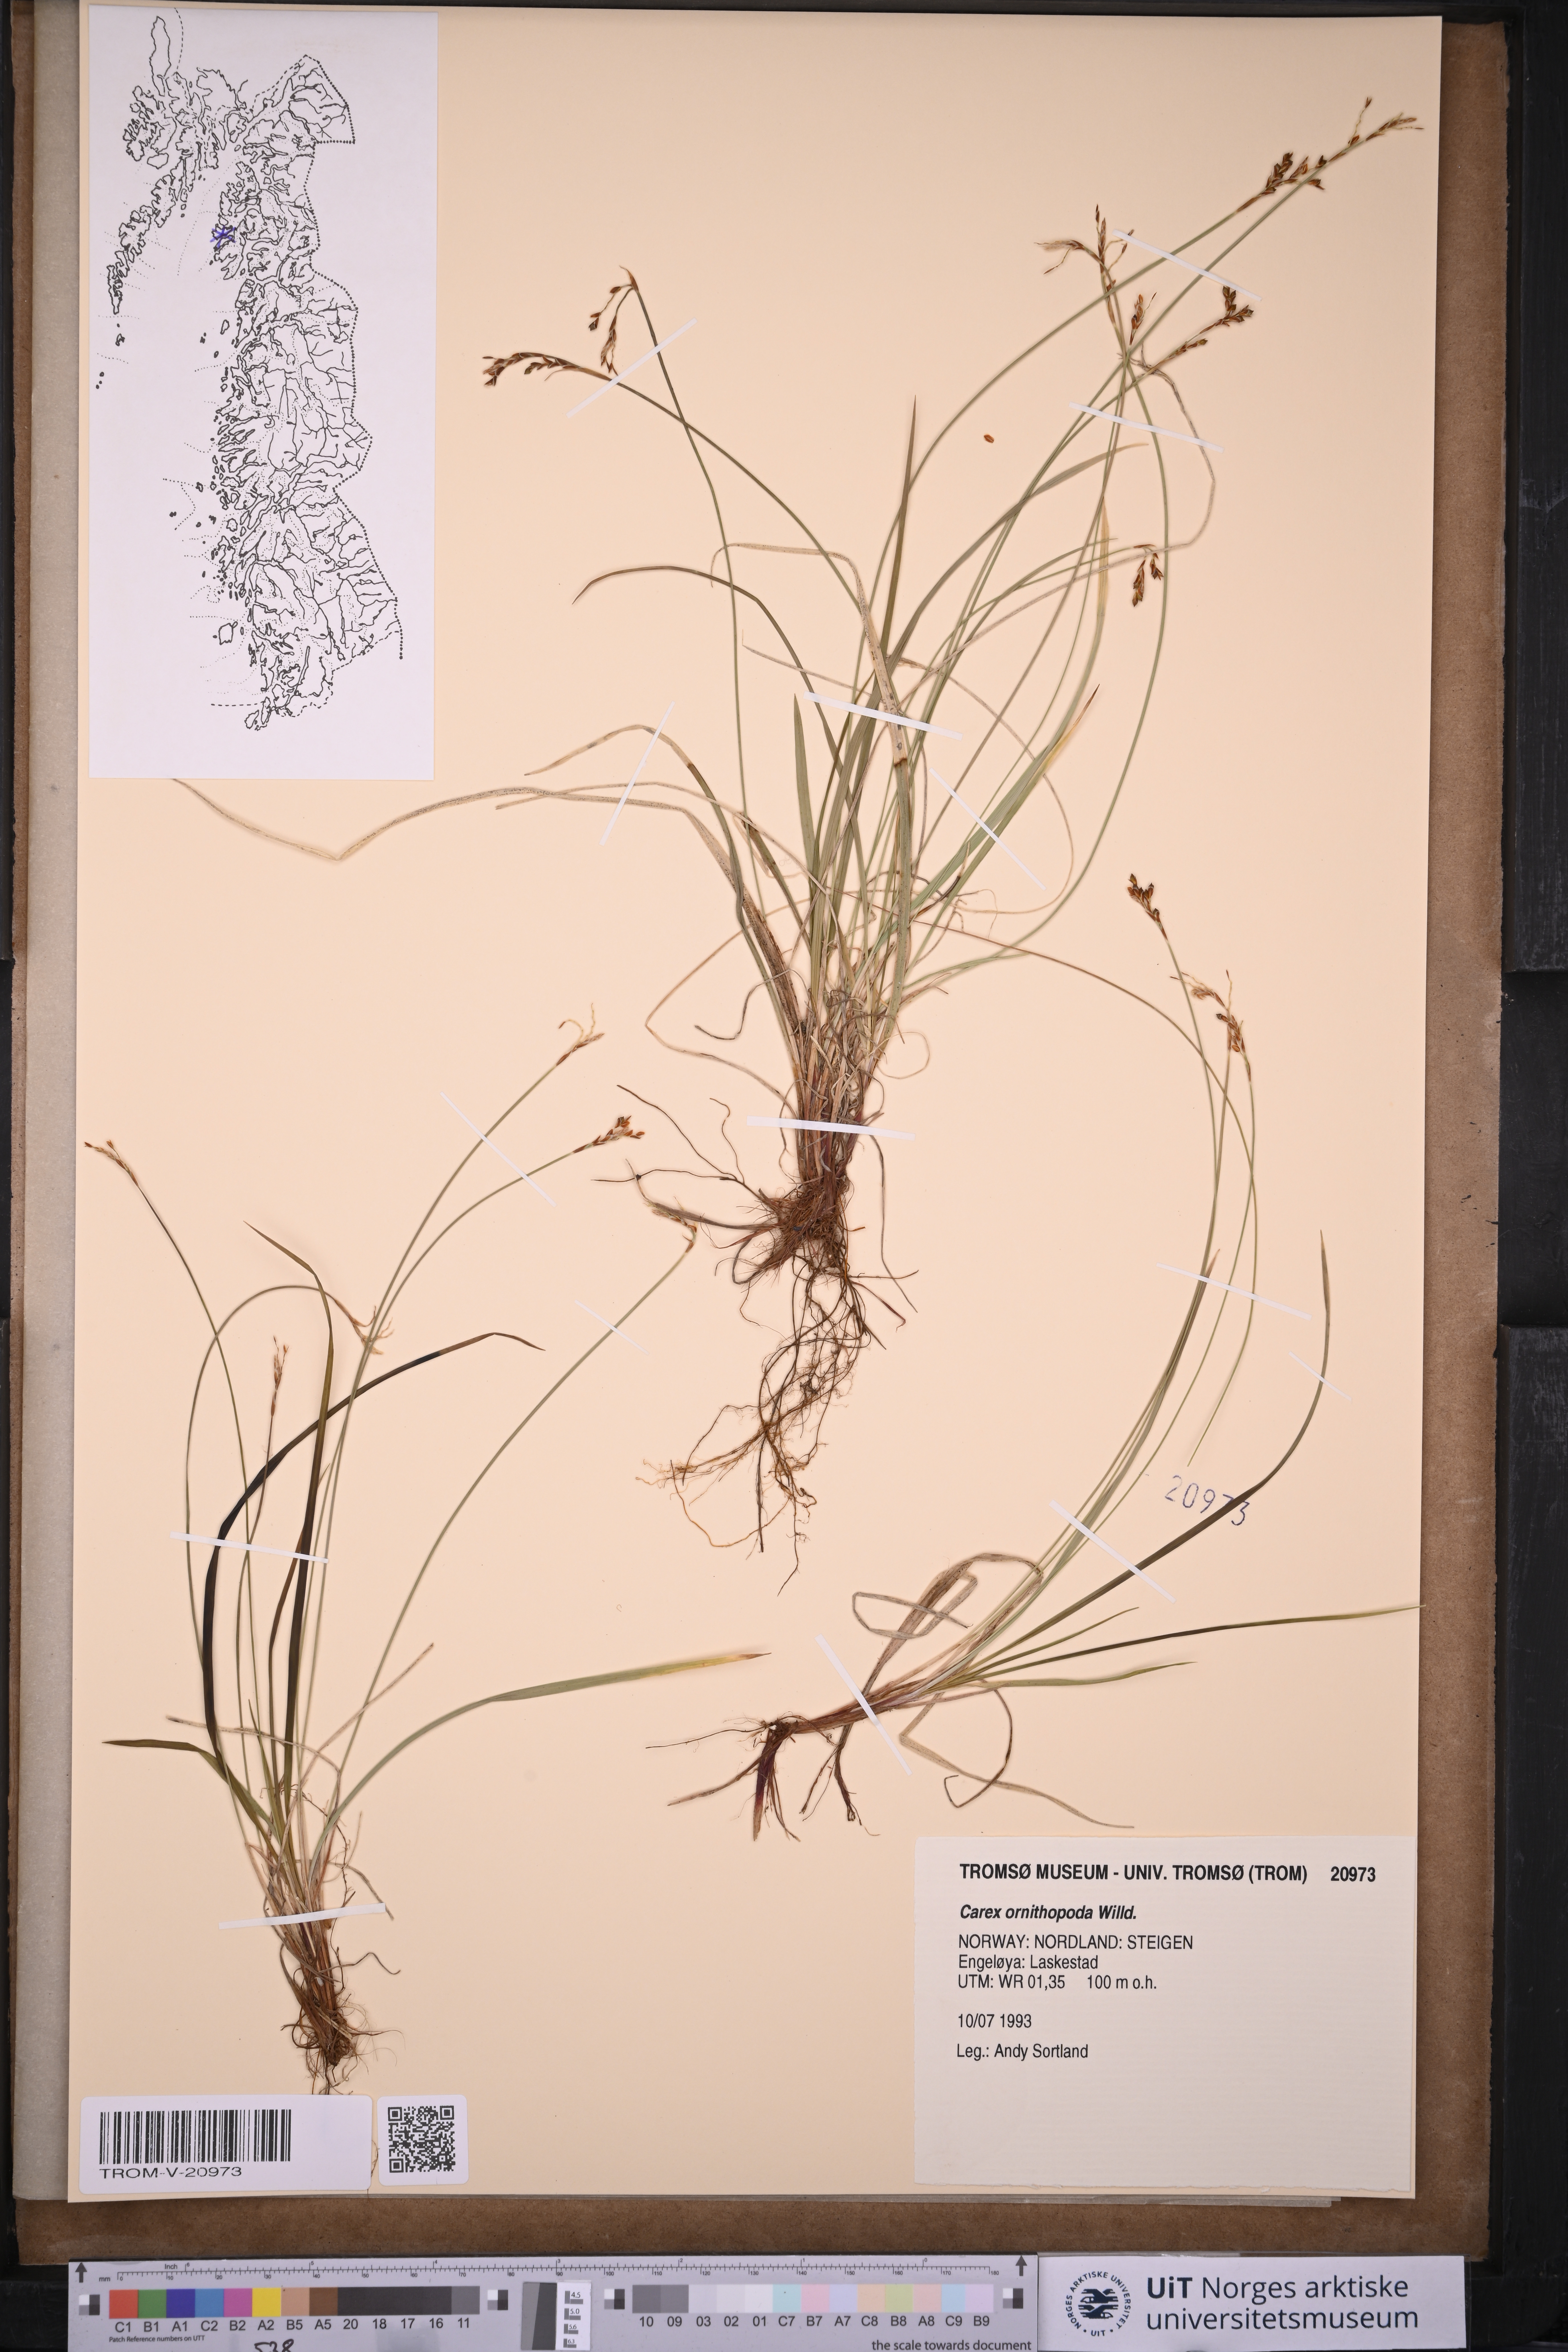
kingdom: Plantae
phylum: Tracheophyta
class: Liliopsida
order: Poales
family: Cyperaceae
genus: Carex
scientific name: Carex ornithopoda
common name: Bird's-foot sedge
